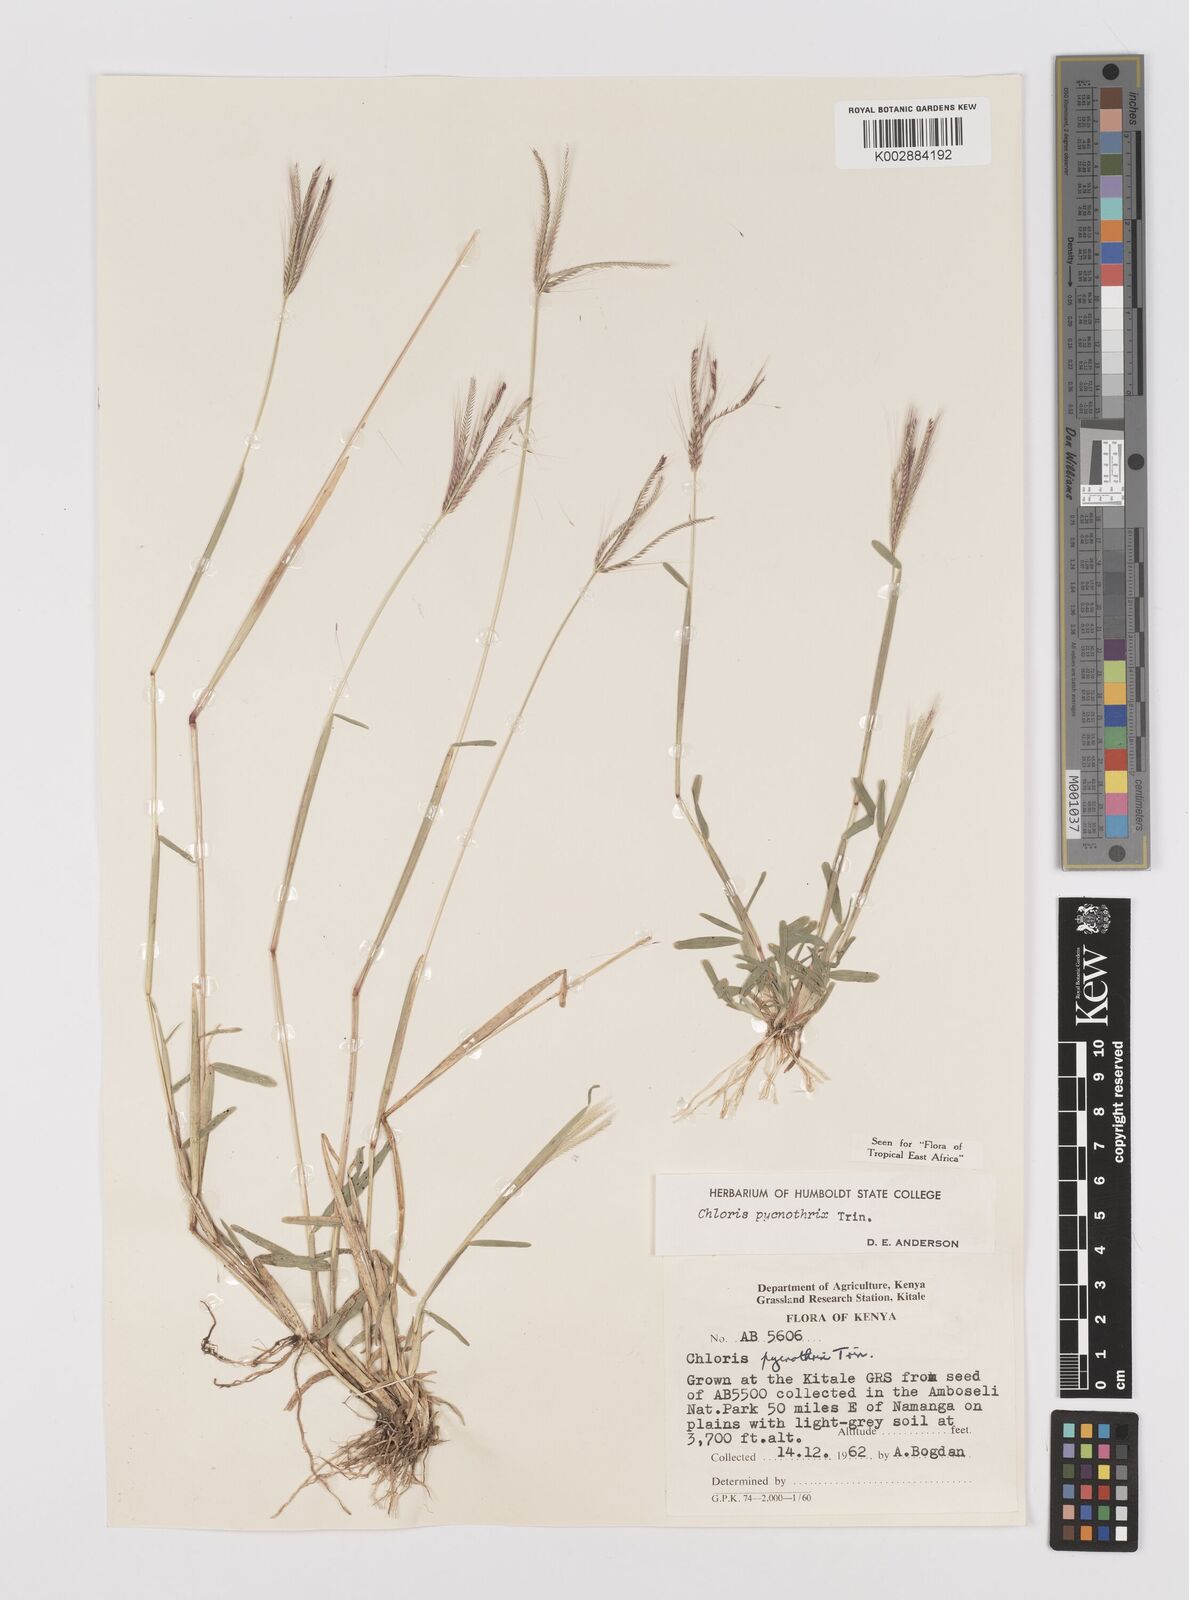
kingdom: Plantae
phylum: Tracheophyta
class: Liliopsida
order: Poales
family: Poaceae
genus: Chloris
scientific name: Chloris pycnothrix
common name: Spiderweb chloris
